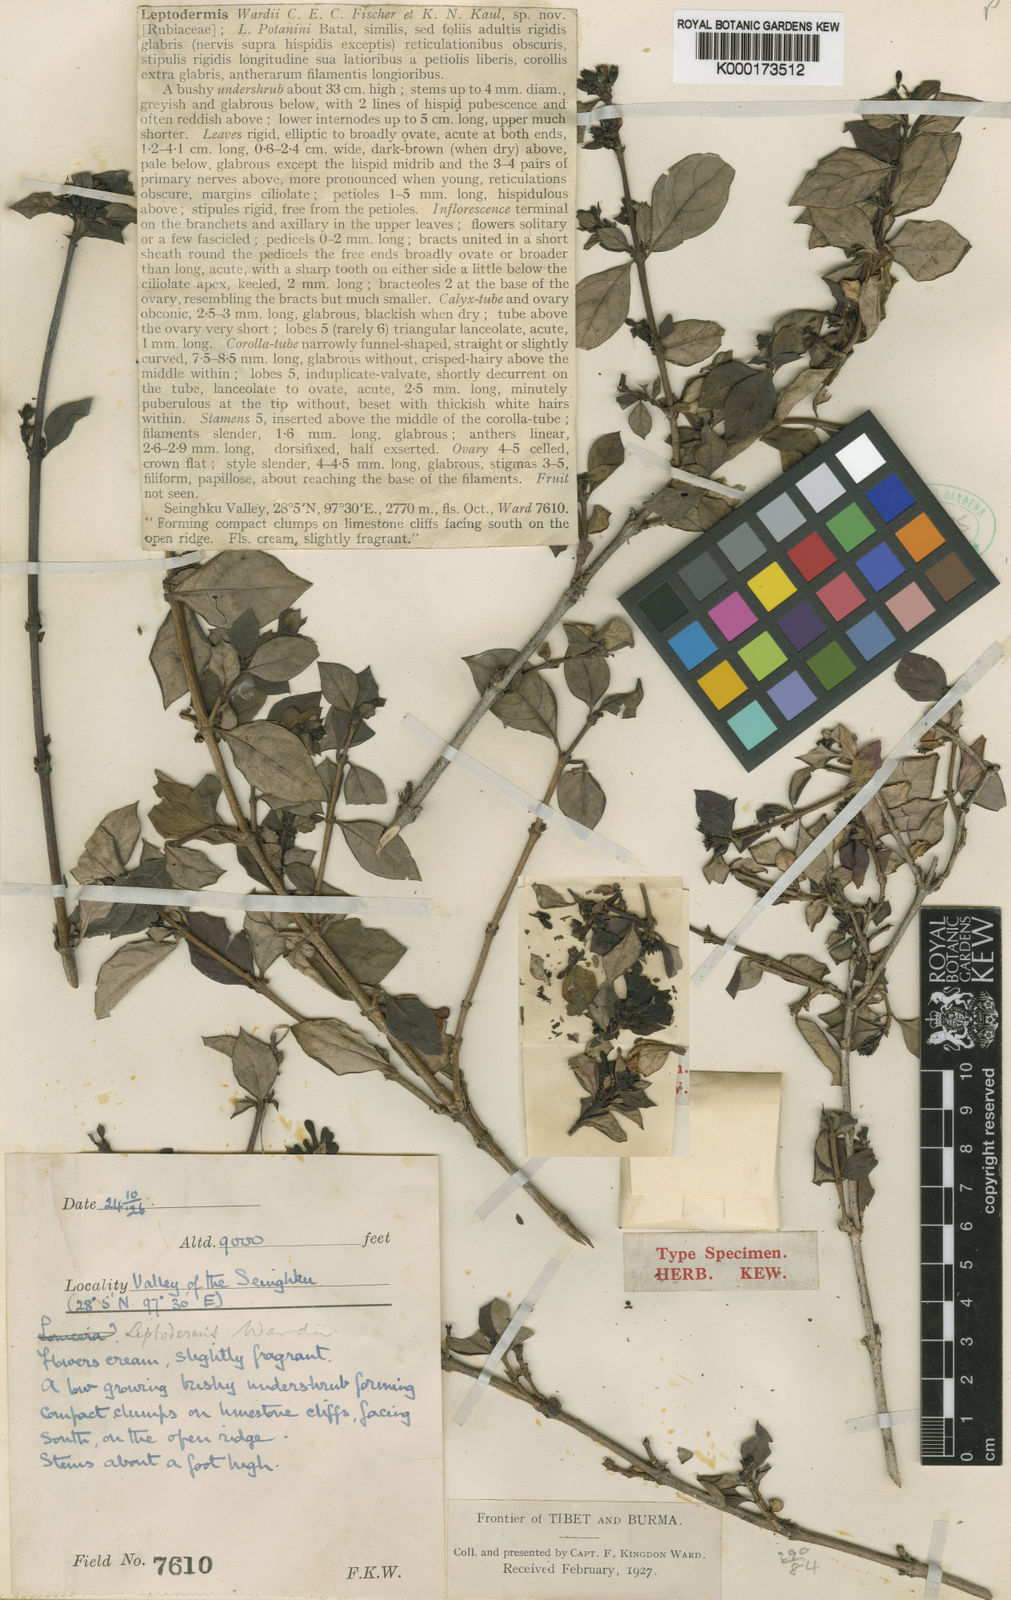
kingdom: Plantae
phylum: Tracheophyta
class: Magnoliopsida
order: Gentianales
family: Rubiaceae
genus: Leptodermis
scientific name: Leptodermis wardii
